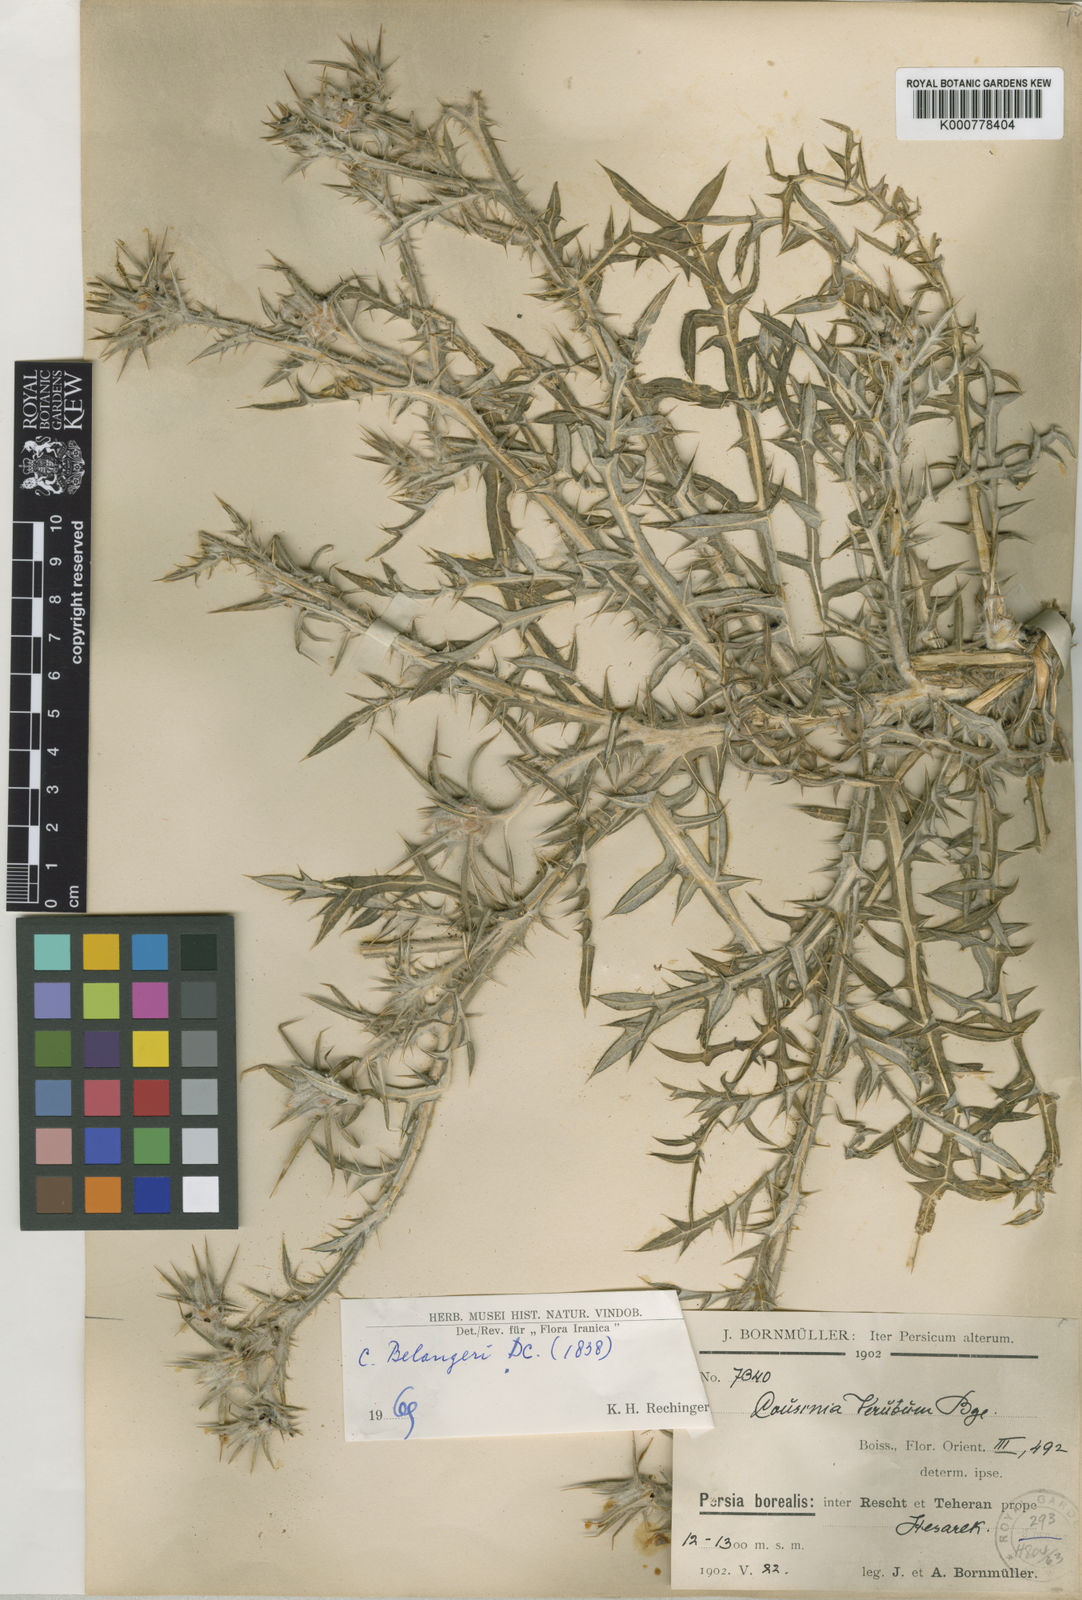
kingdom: Plantae
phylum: Tracheophyta
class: Magnoliopsida
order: Asterales
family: Asteraceae
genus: Cousinia
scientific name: Cousinia belangeri
